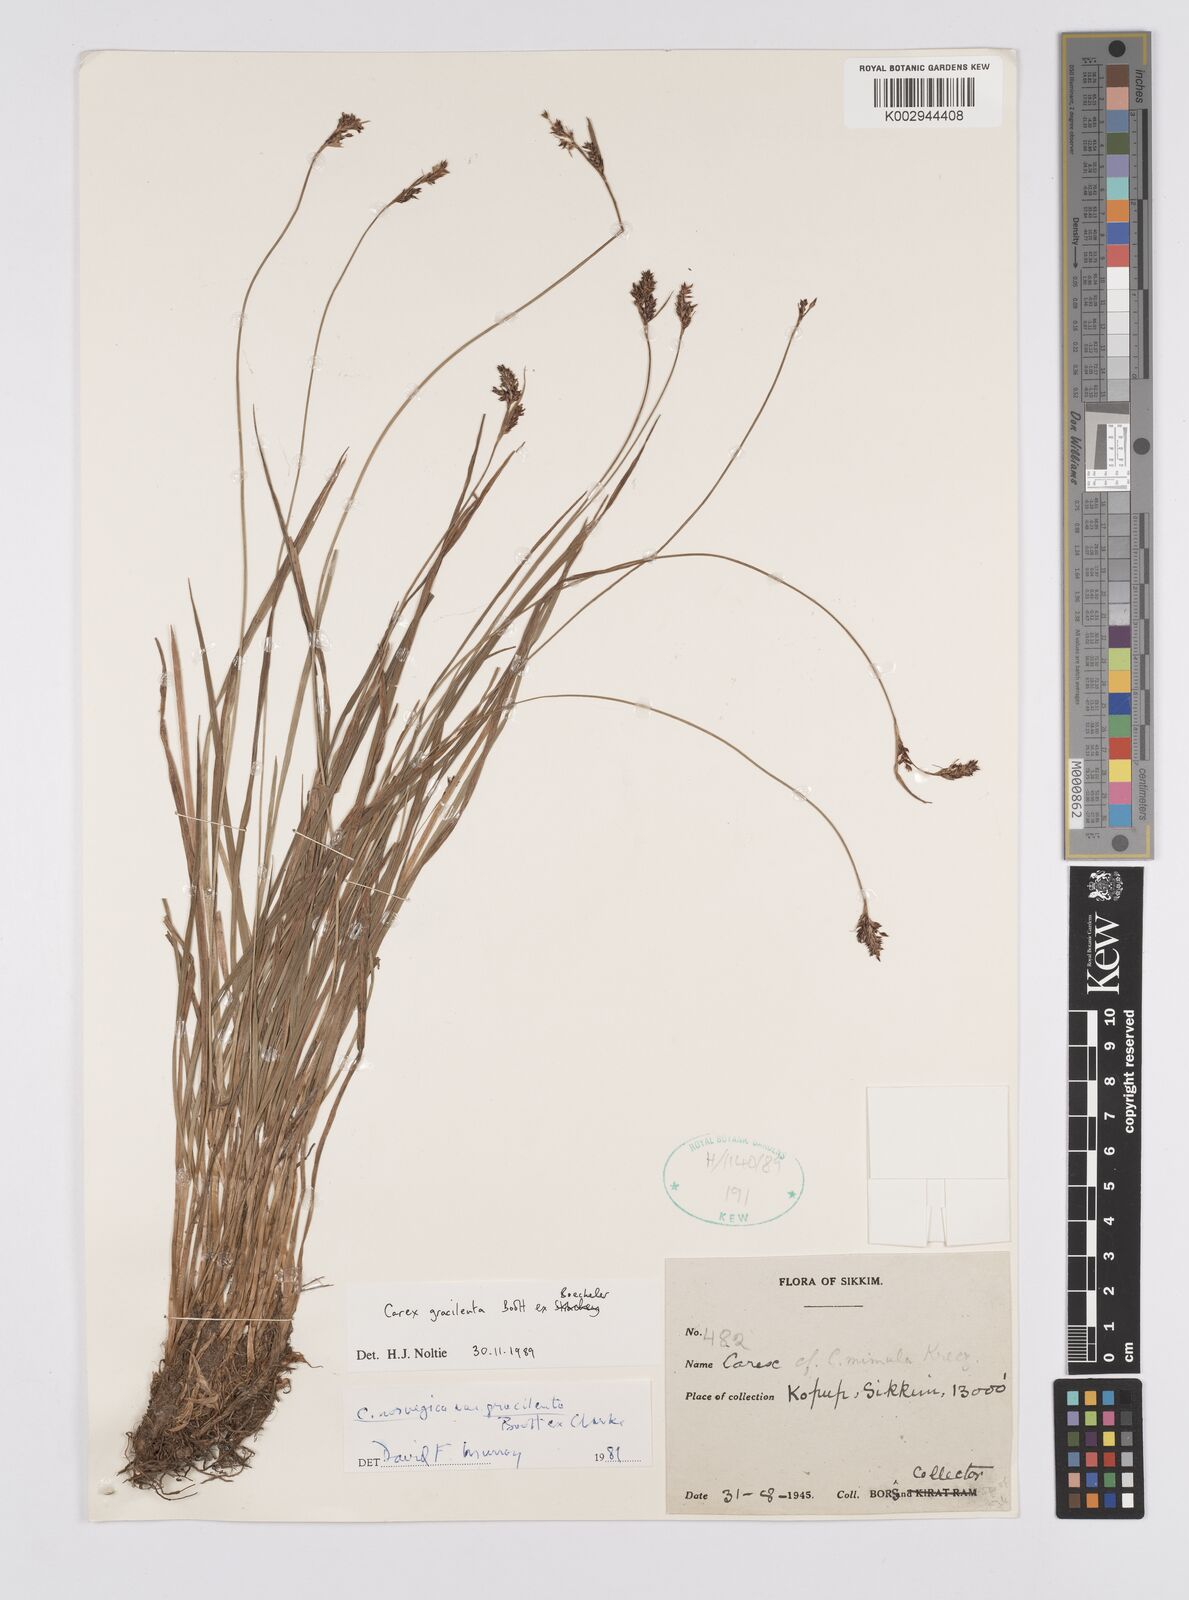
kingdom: Plantae
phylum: Tracheophyta
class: Liliopsida
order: Poales
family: Cyperaceae
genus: Carex
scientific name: Carex norvegica
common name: Close-headed alpine-sedge
